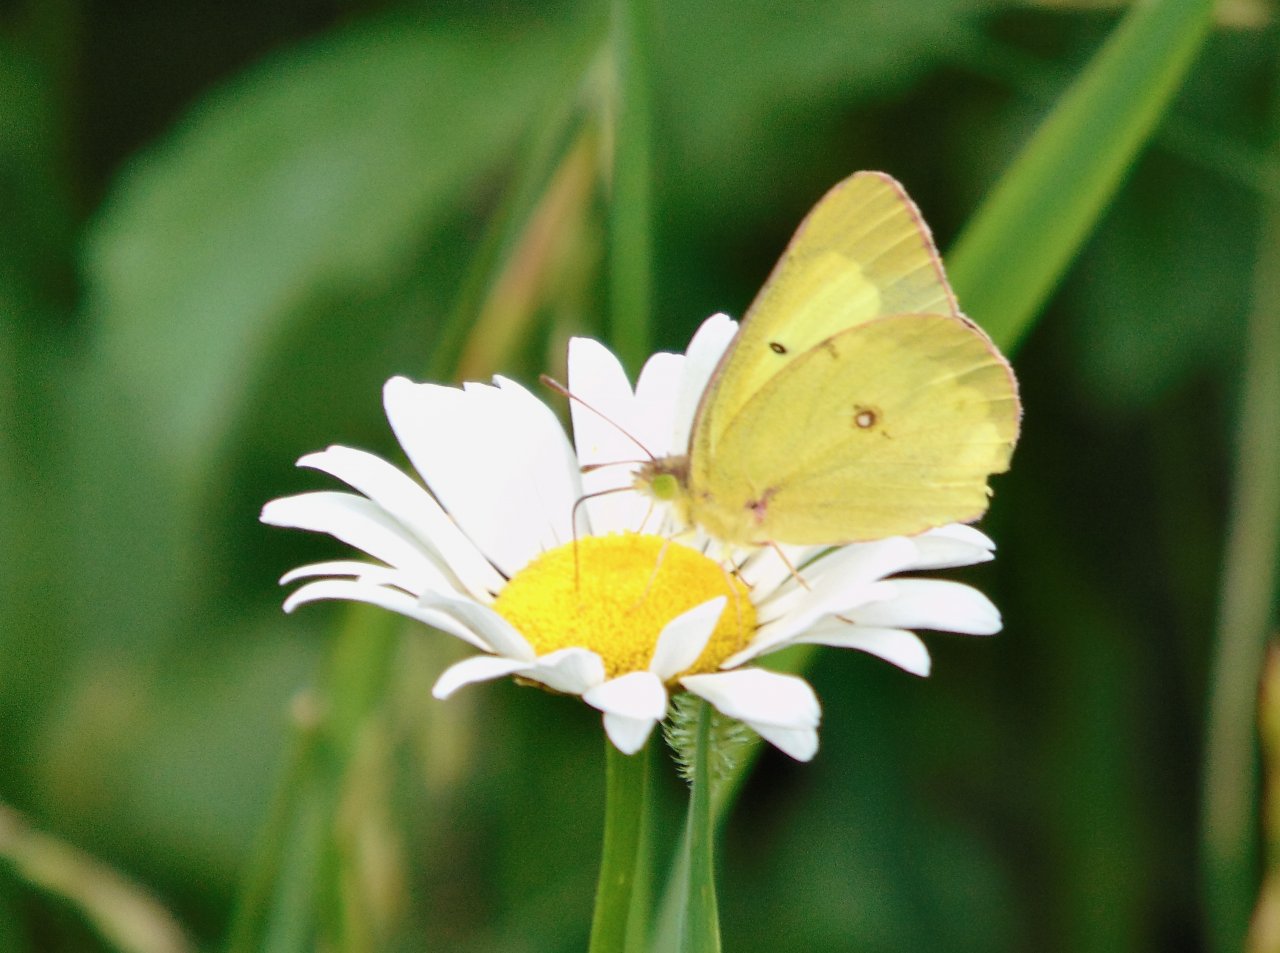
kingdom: Animalia
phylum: Arthropoda
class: Insecta
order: Lepidoptera
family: Pieridae
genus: Colias
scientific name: Colias philodice
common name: Clouded Sulphur
